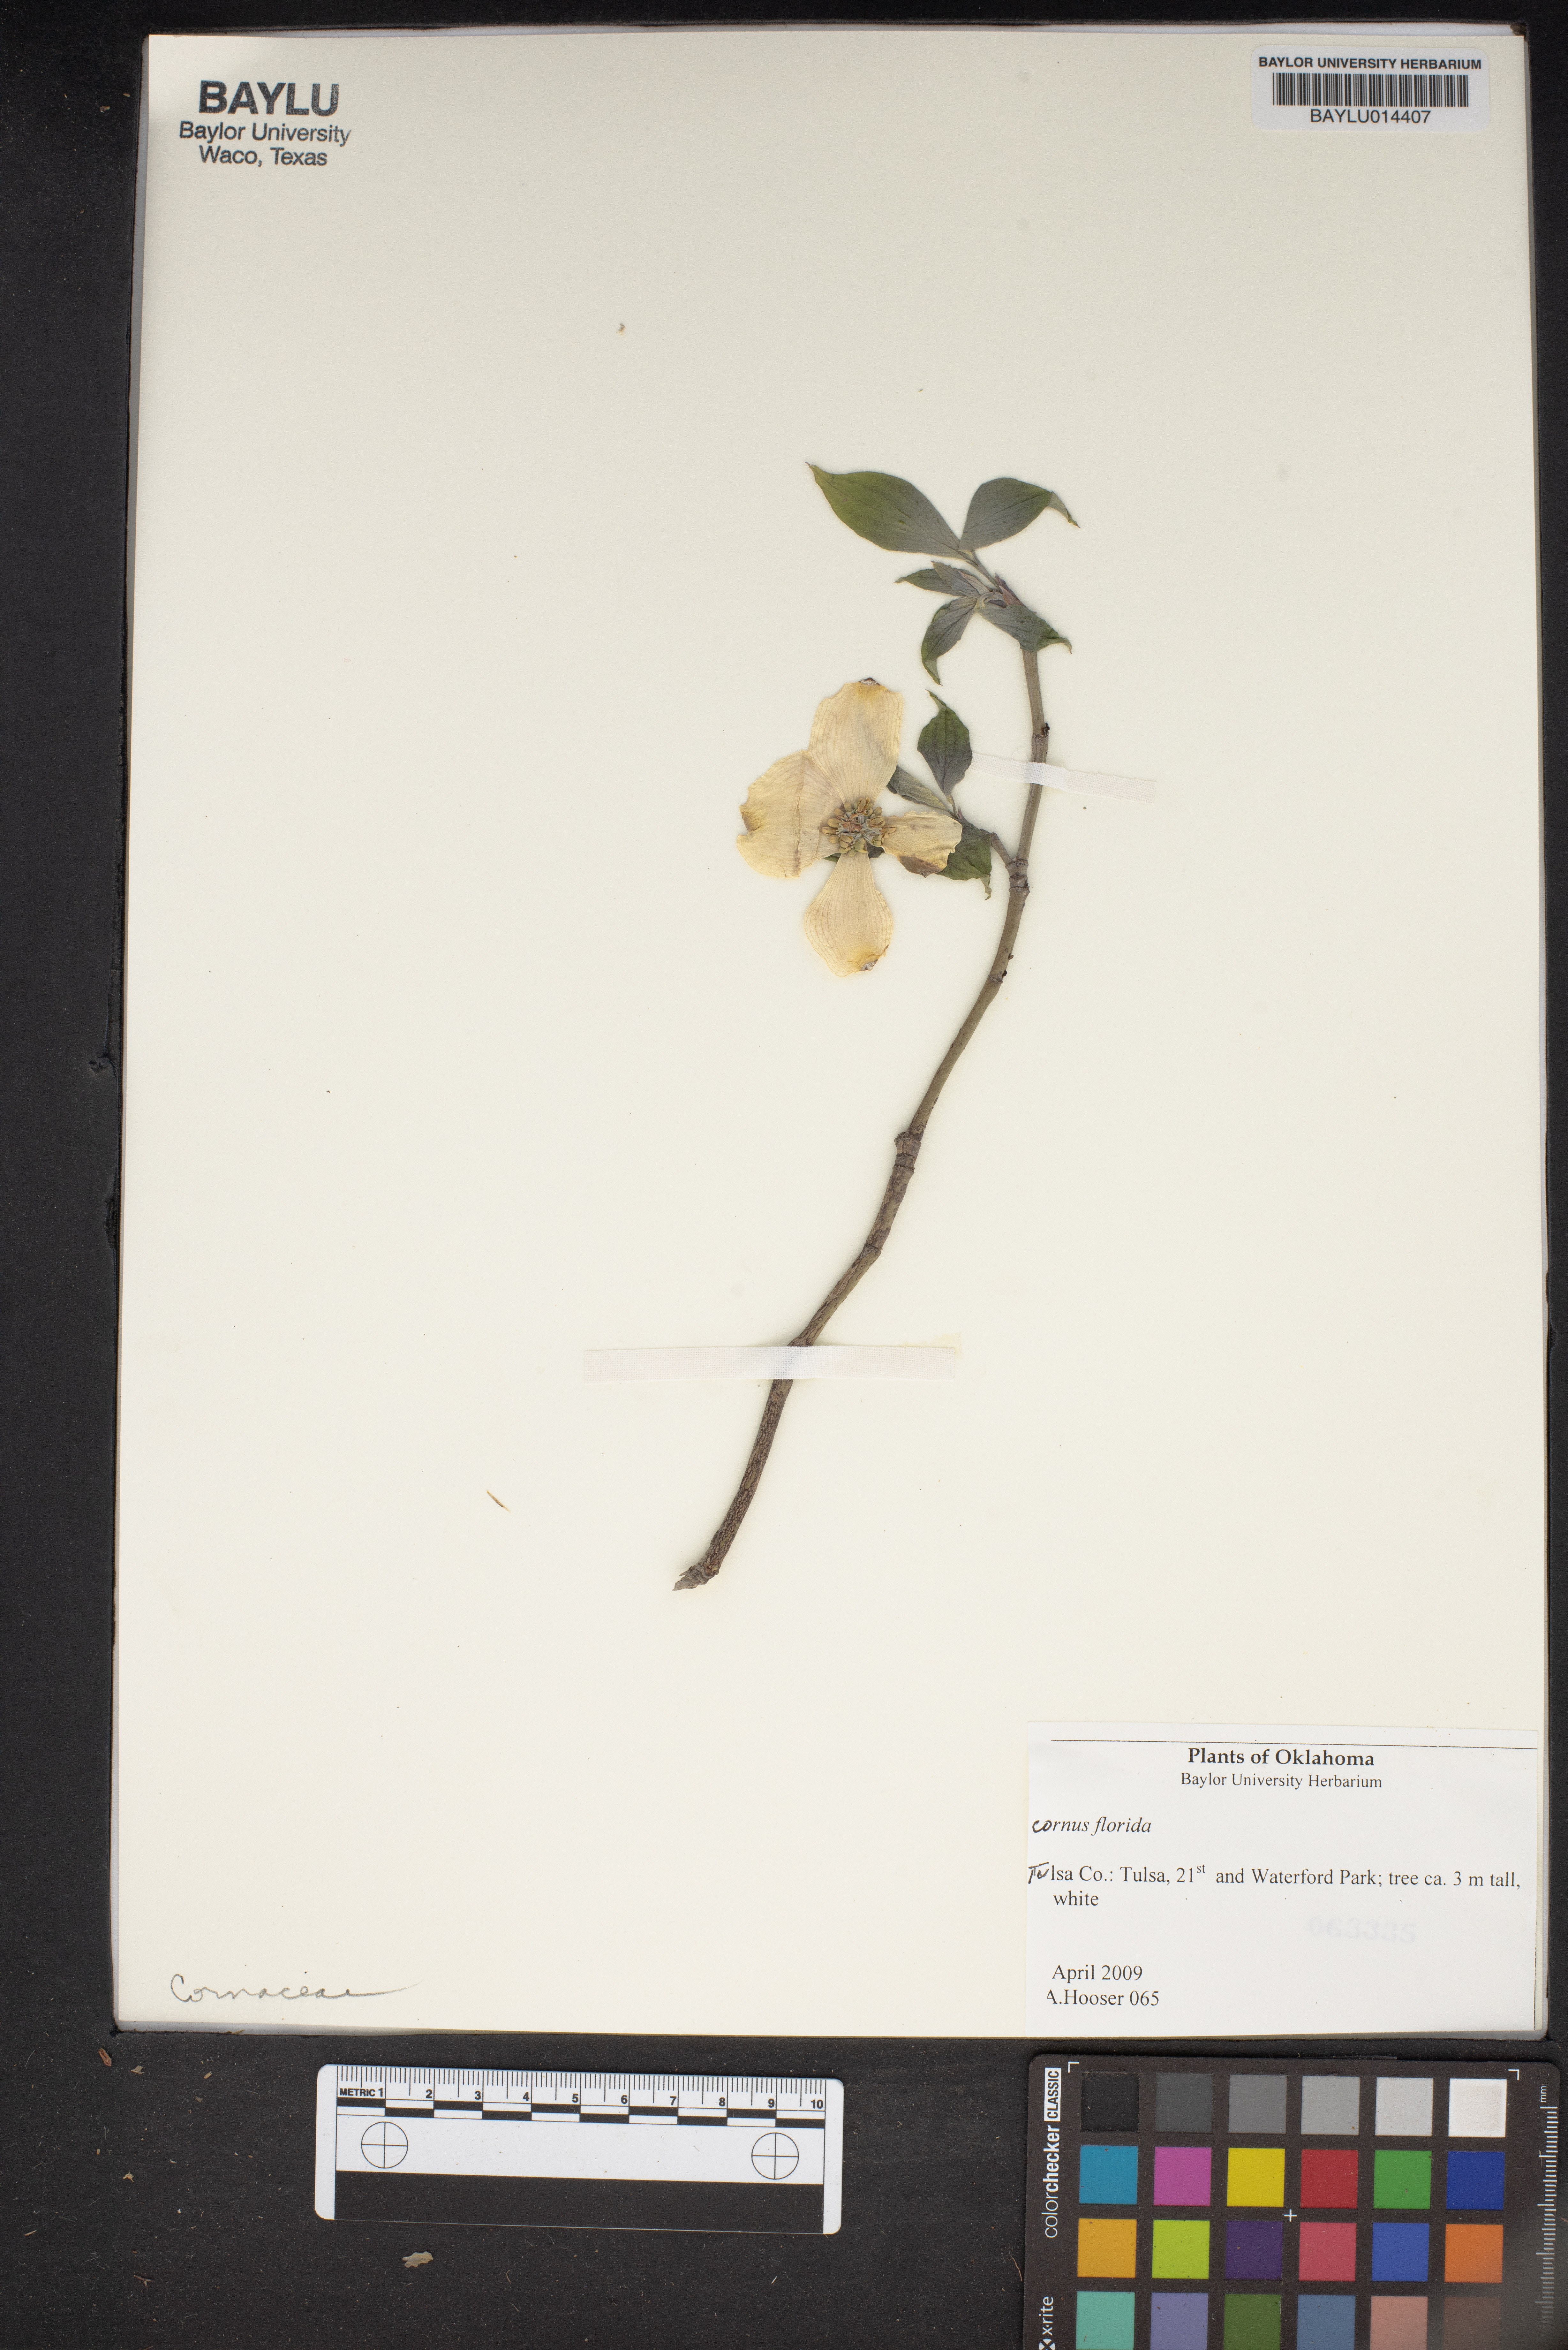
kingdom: Plantae
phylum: Tracheophyta
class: Magnoliopsida
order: Cornales
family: Cornaceae
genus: Cornus
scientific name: Cornus florida
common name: Flowering dogwood
